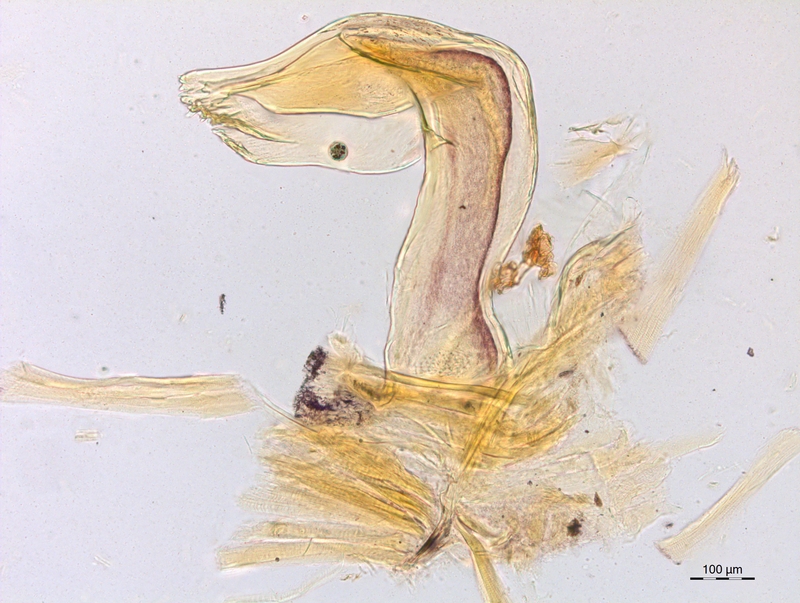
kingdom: Animalia
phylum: Arthropoda
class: Diplopoda
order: Chordeumatida
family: Craspedosomatidae
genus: Craspedosoma
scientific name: Craspedosoma furculigerum
